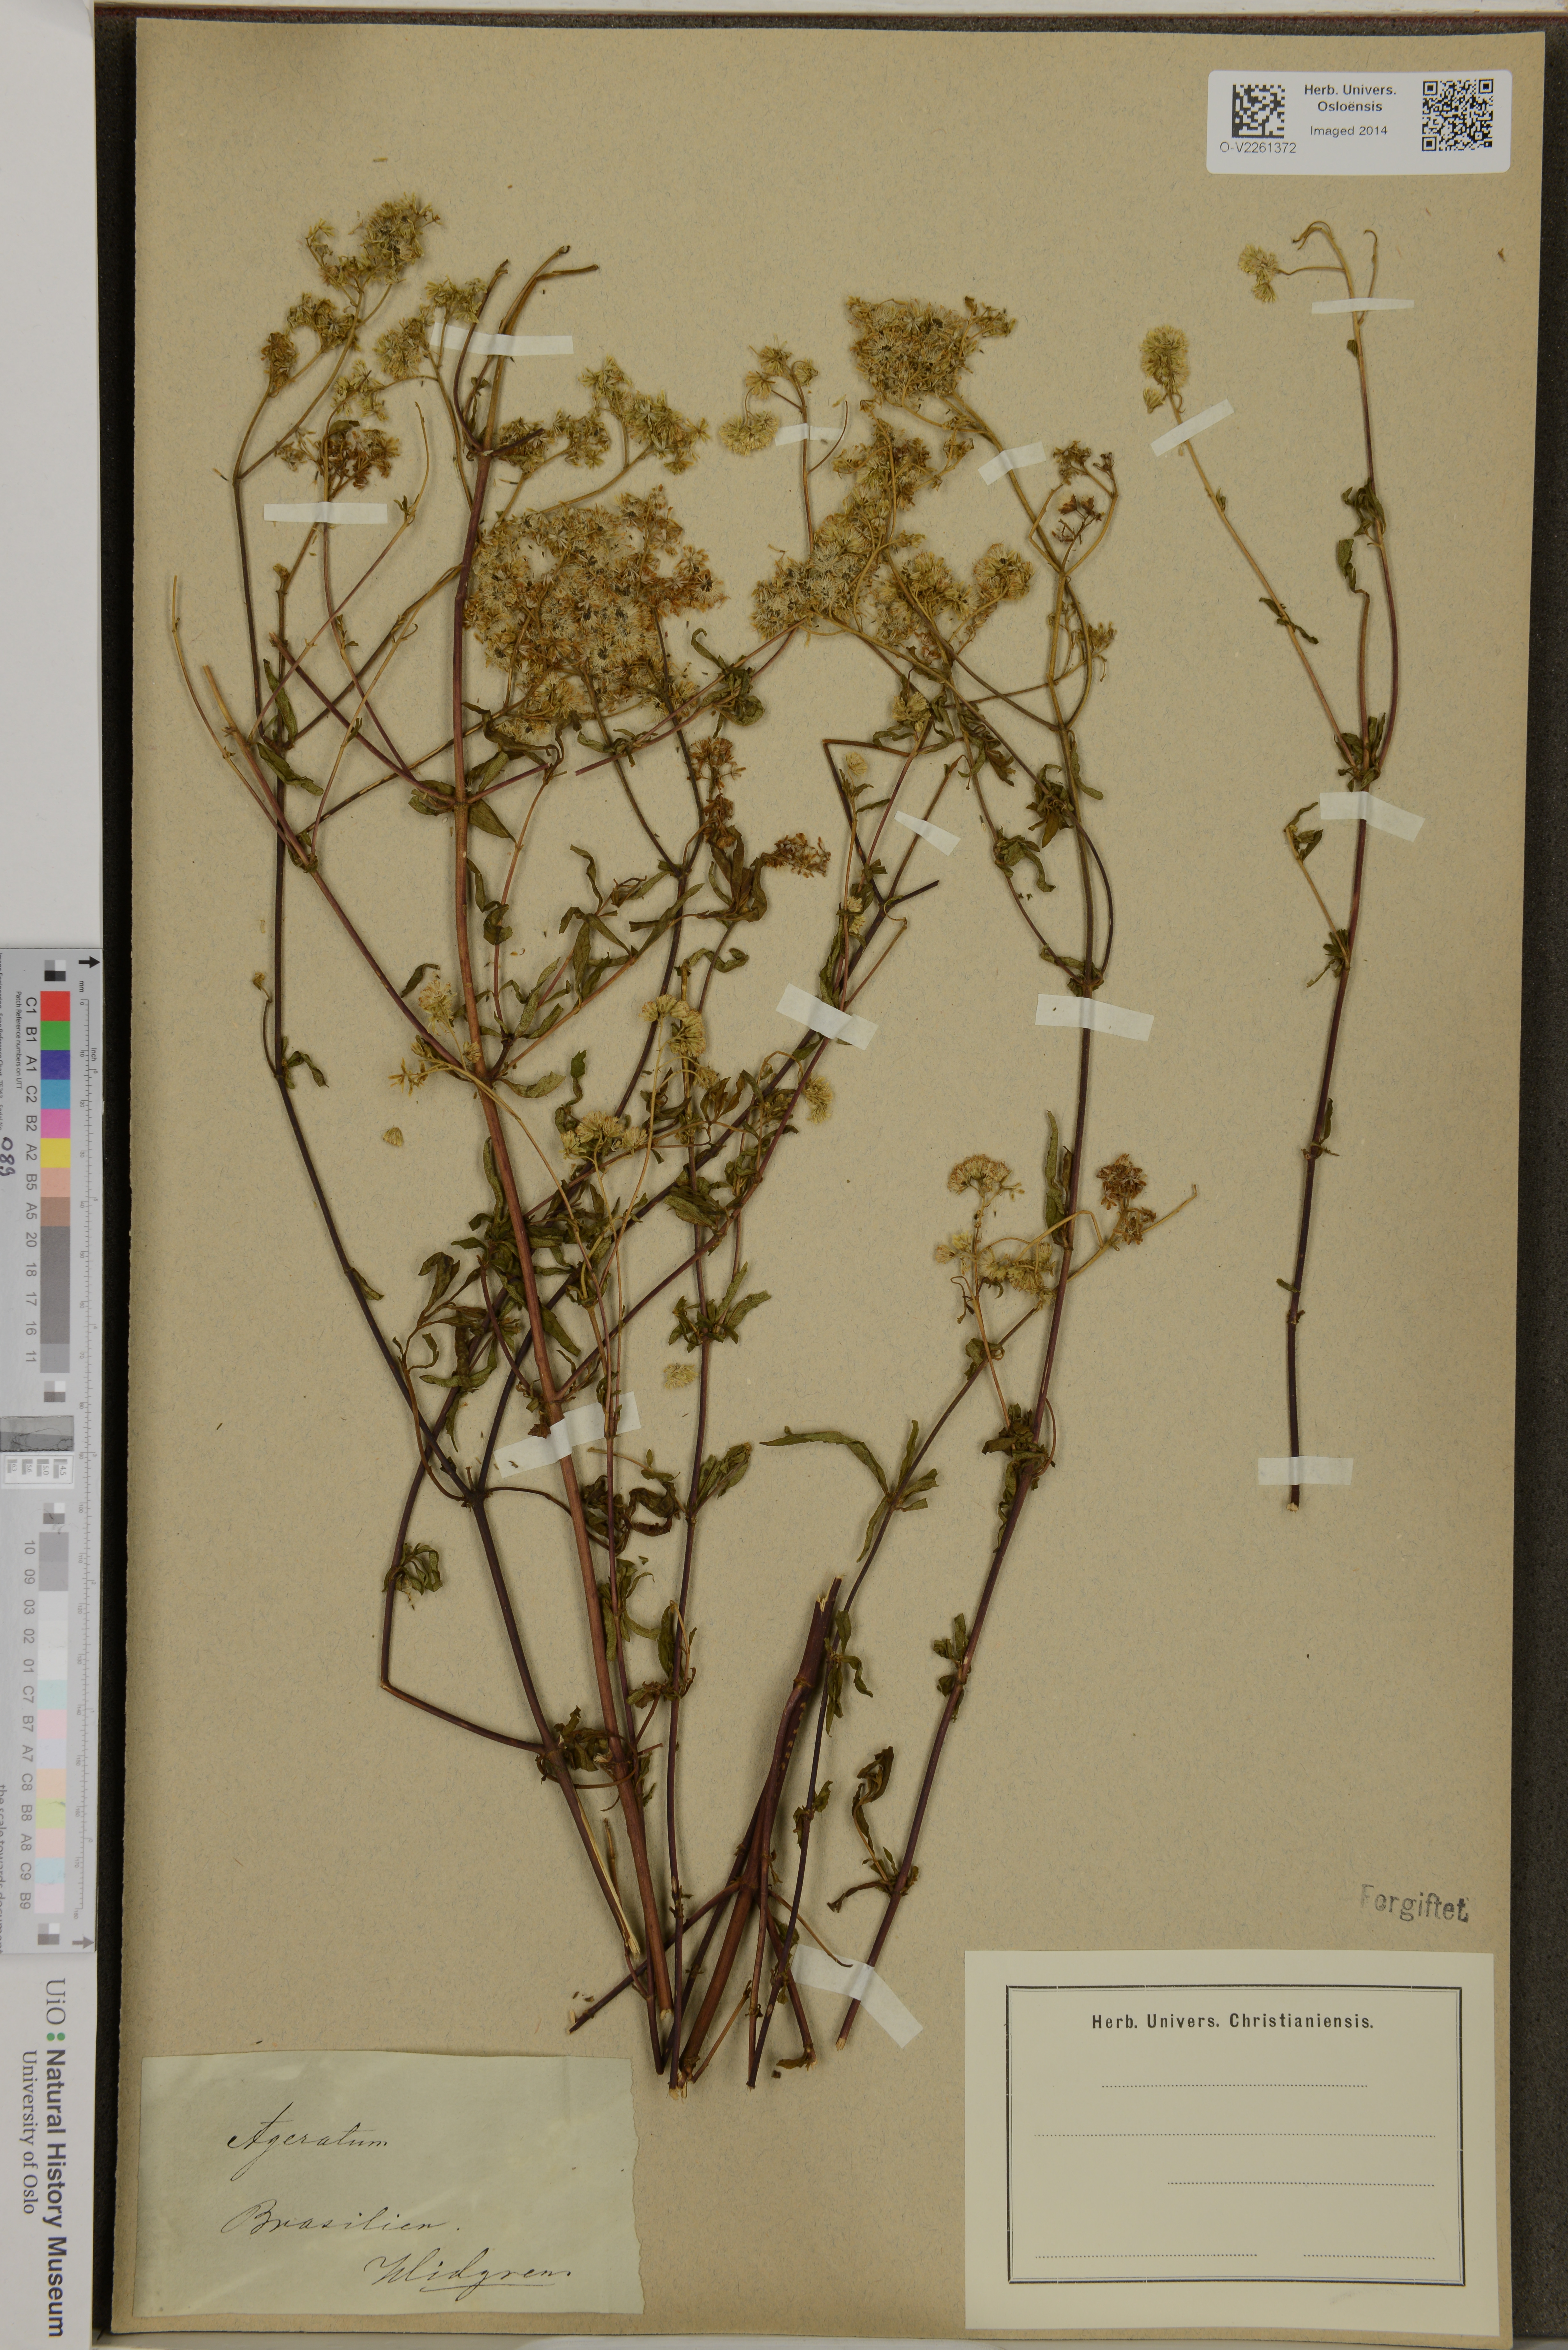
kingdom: Plantae
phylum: Tracheophyta
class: Magnoliopsida
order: Asterales
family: Asteraceae
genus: Ageratum
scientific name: Ageratum
